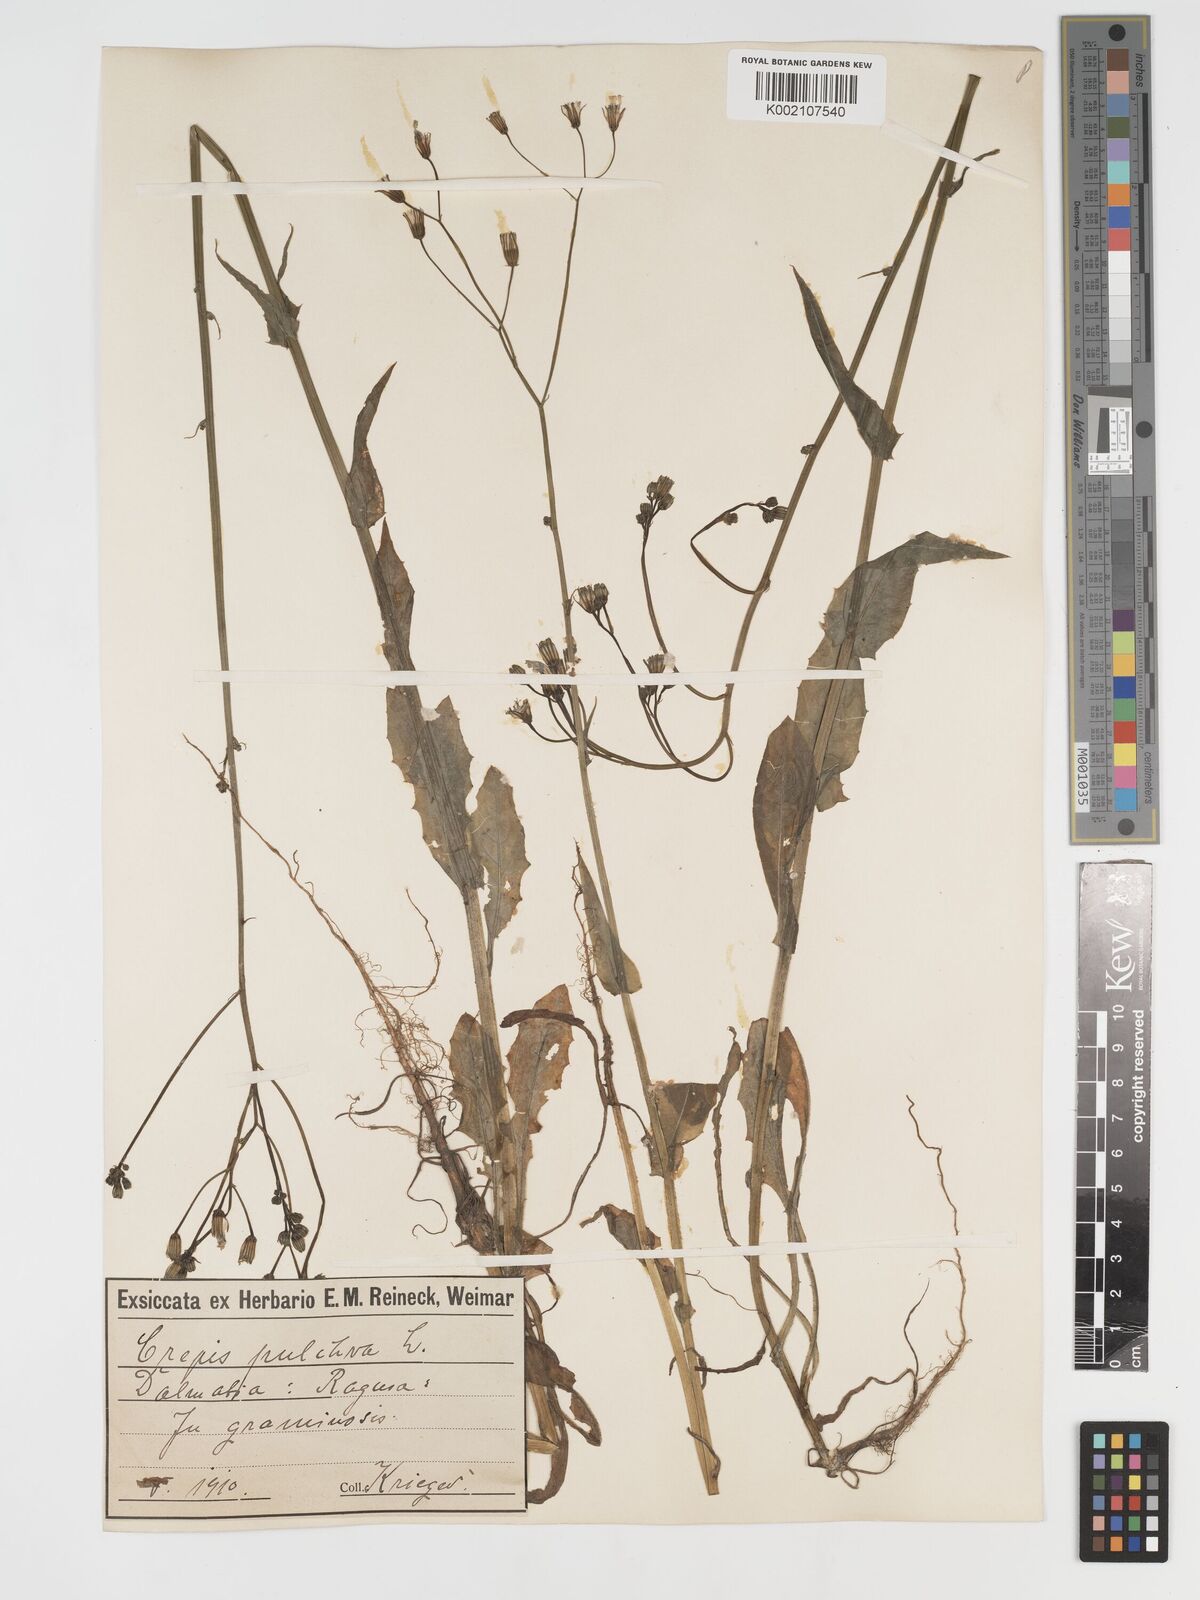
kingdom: Plantae
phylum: Tracheophyta
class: Magnoliopsida
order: Asterales
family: Asteraceae
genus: Crepis
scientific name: Crepis pulchra
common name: Hawk's-beard
